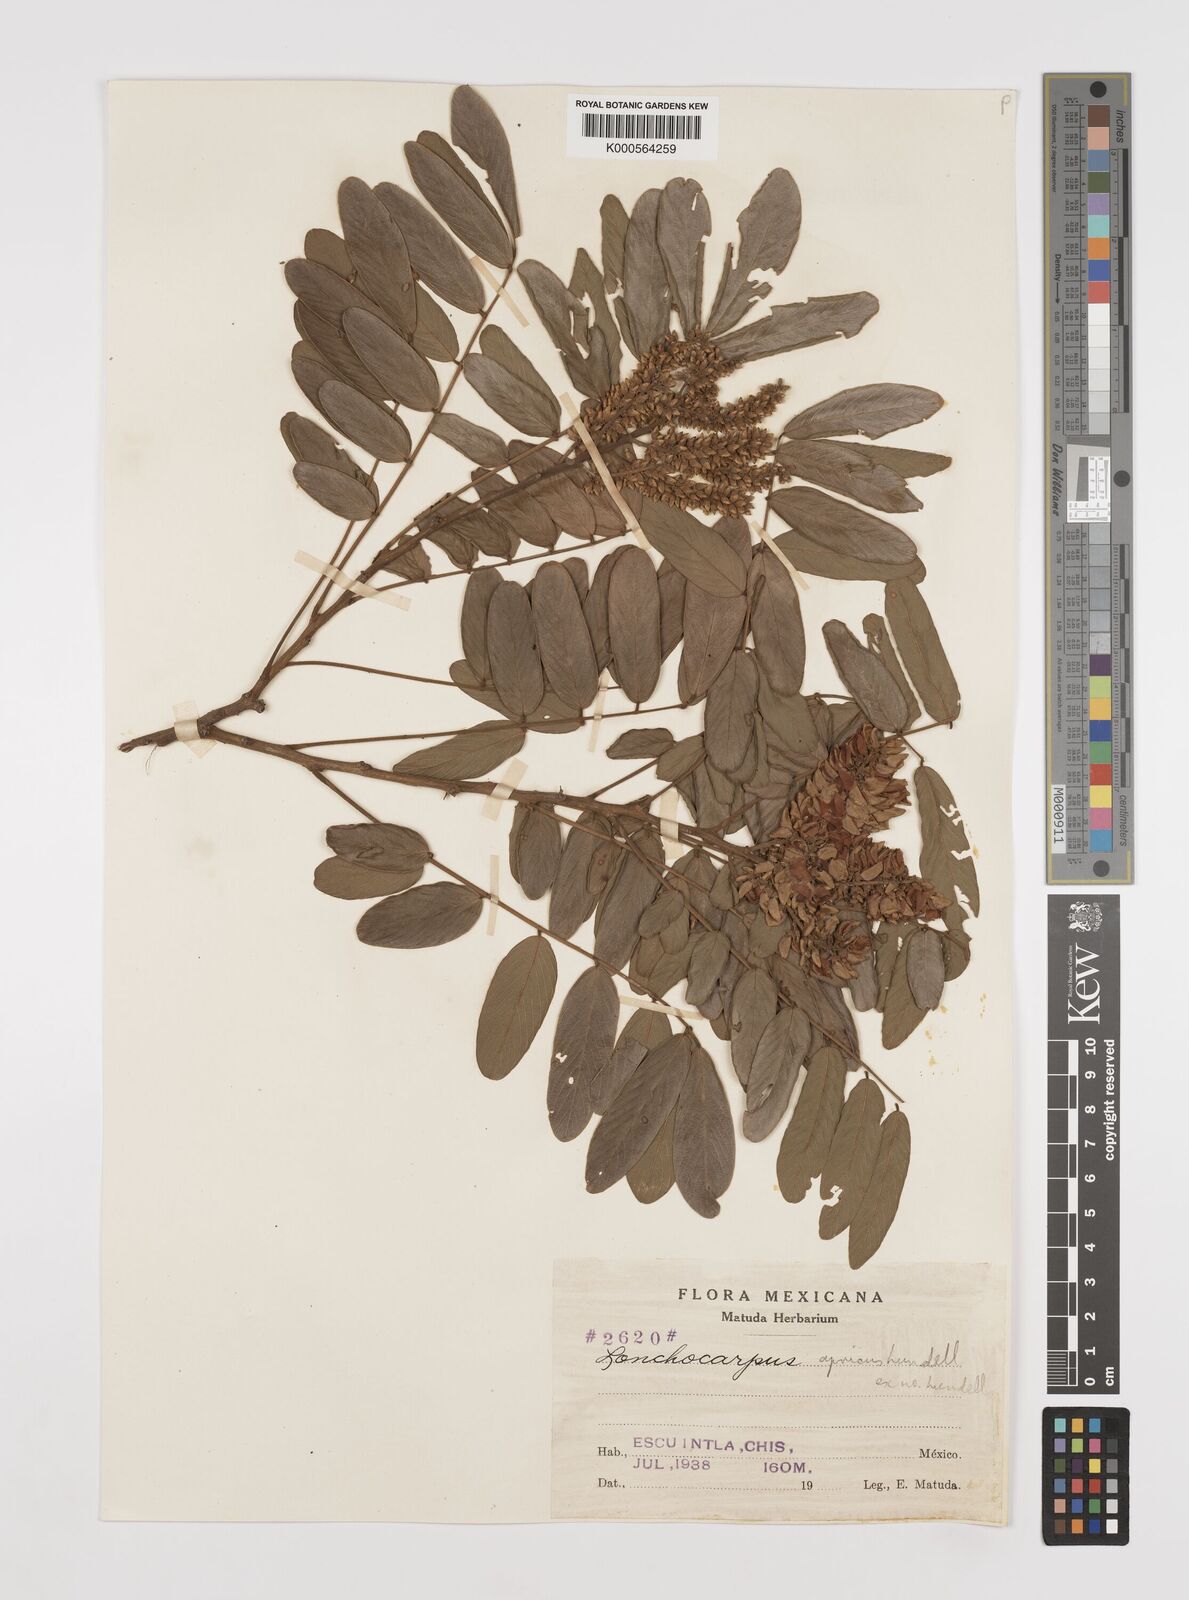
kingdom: Plantae
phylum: Tracheophyta
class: Magnoliopsida
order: Fabales
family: Fabaceae
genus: Lonchocarpus
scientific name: Lonchocarpus rugosus
